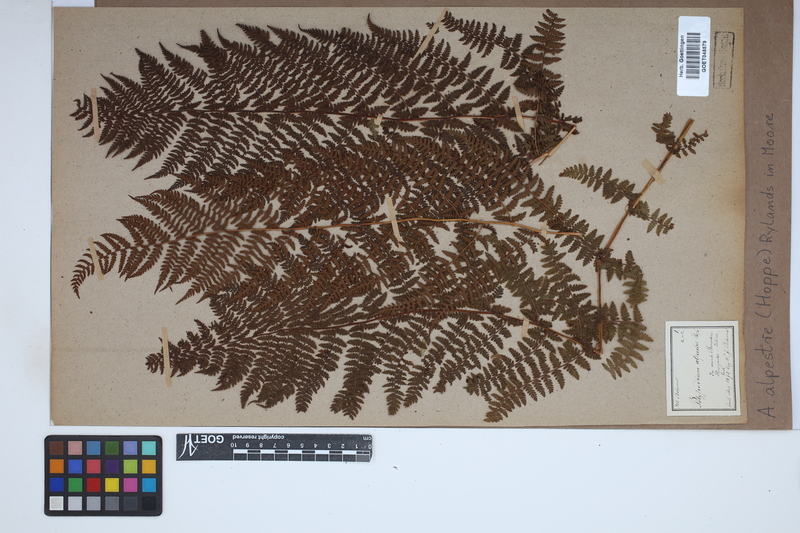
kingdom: Plantae
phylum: Tracheophyta
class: Polypodiopsida
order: Polypodiales
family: Athyriaceae
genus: Pseudathyrium
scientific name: Pseudathyrium alpestre
